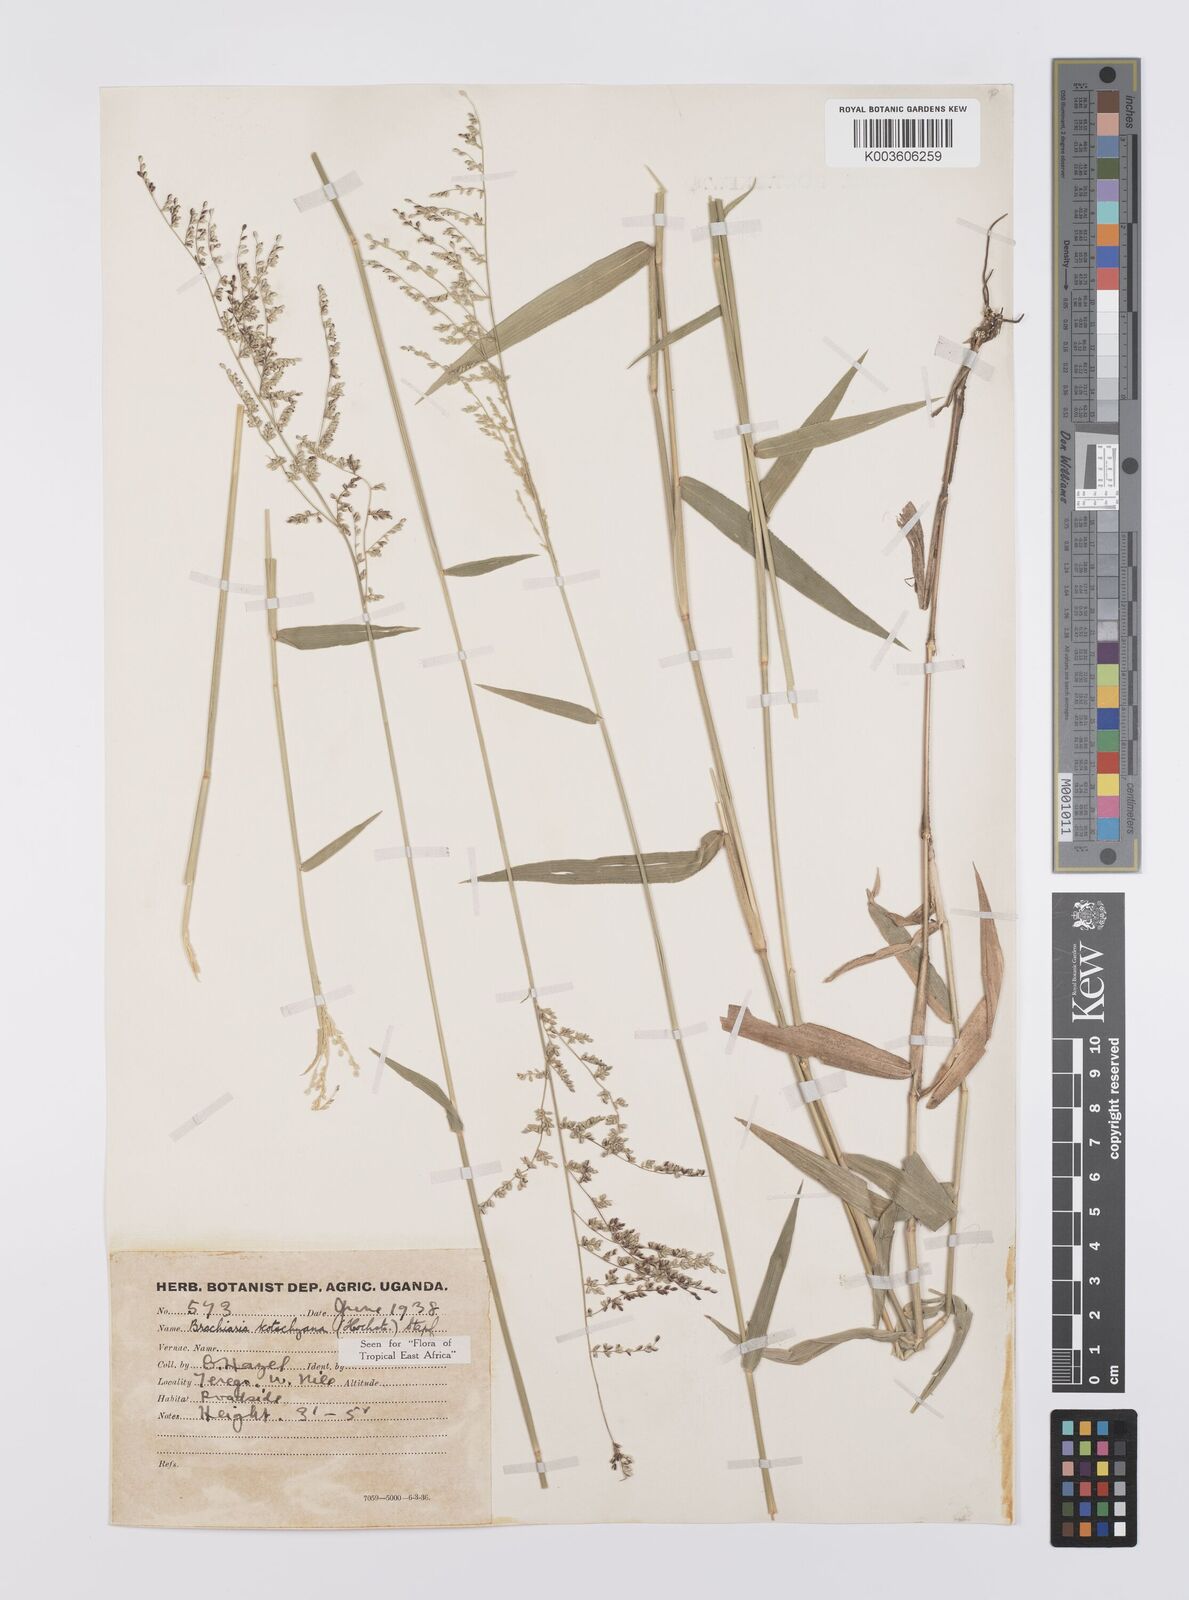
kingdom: Plantae
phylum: Tracheophyta
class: Liliopsida
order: Poales
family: Poaceae
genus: Urochloa
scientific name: Urochloa comata
